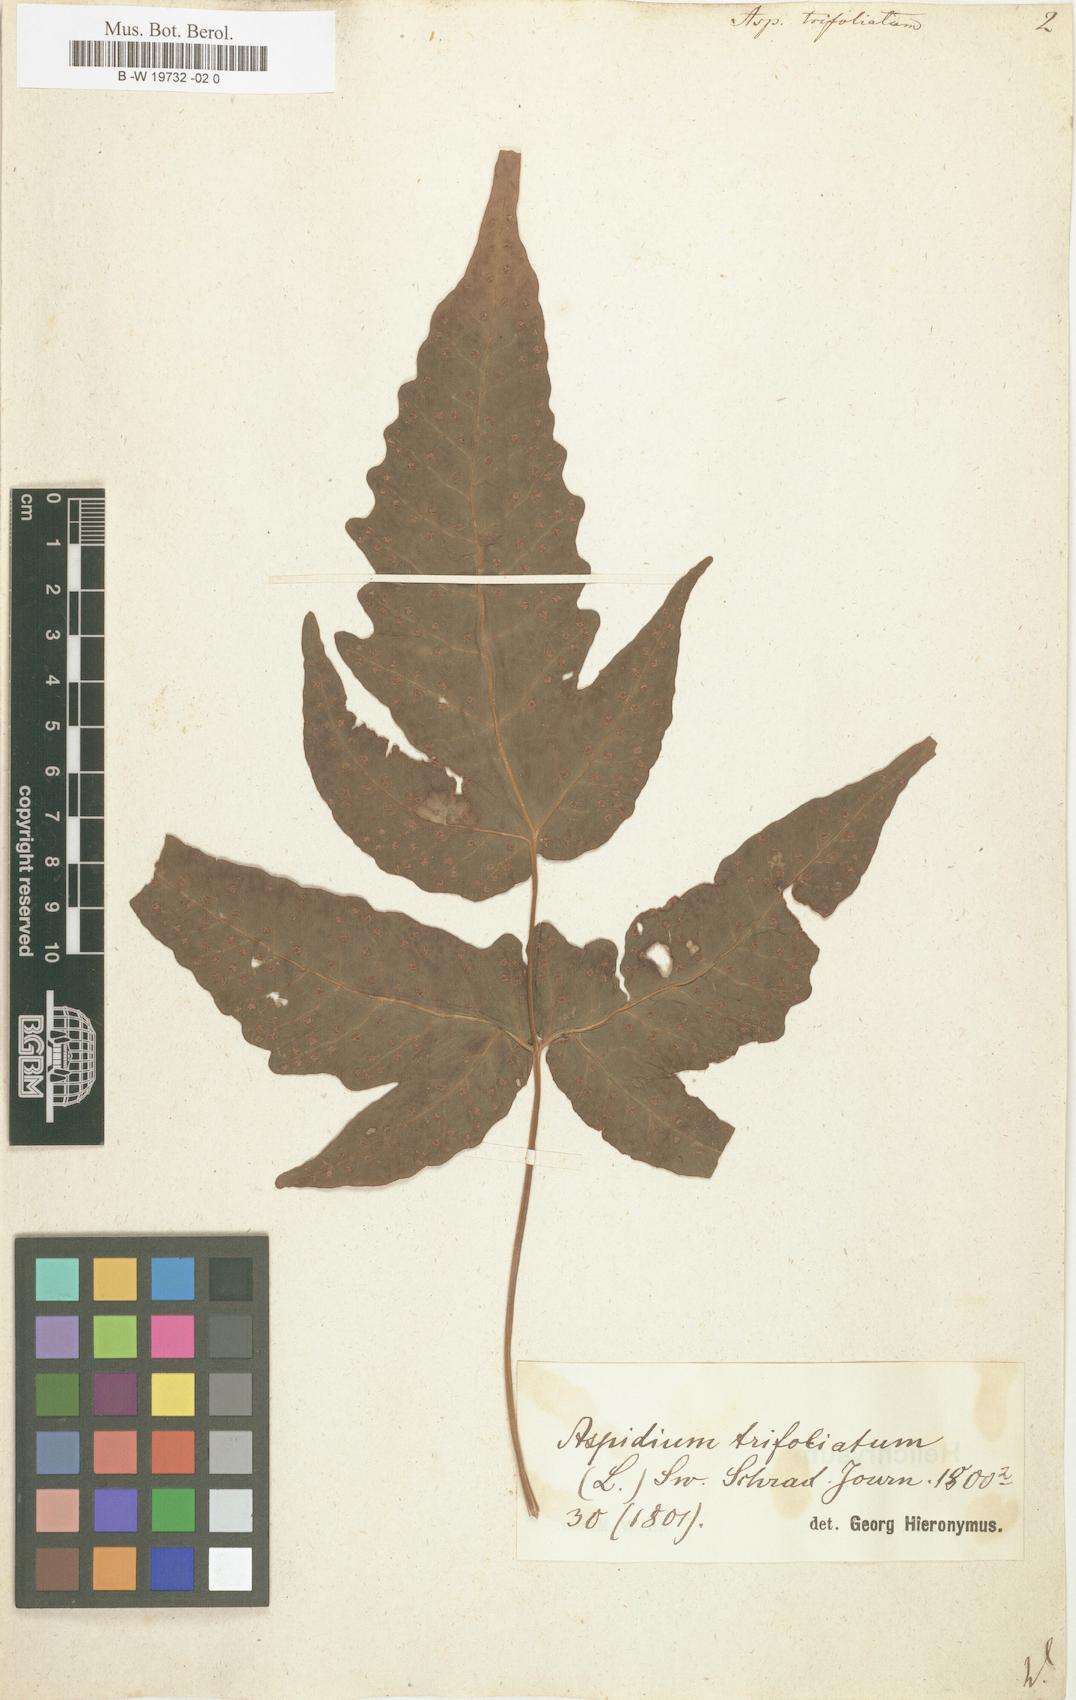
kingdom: Plantae
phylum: Tracheophyta
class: Polypodiopsida
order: Polypodiales
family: Tectariaceae
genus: Tectaria
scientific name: Tectaria
